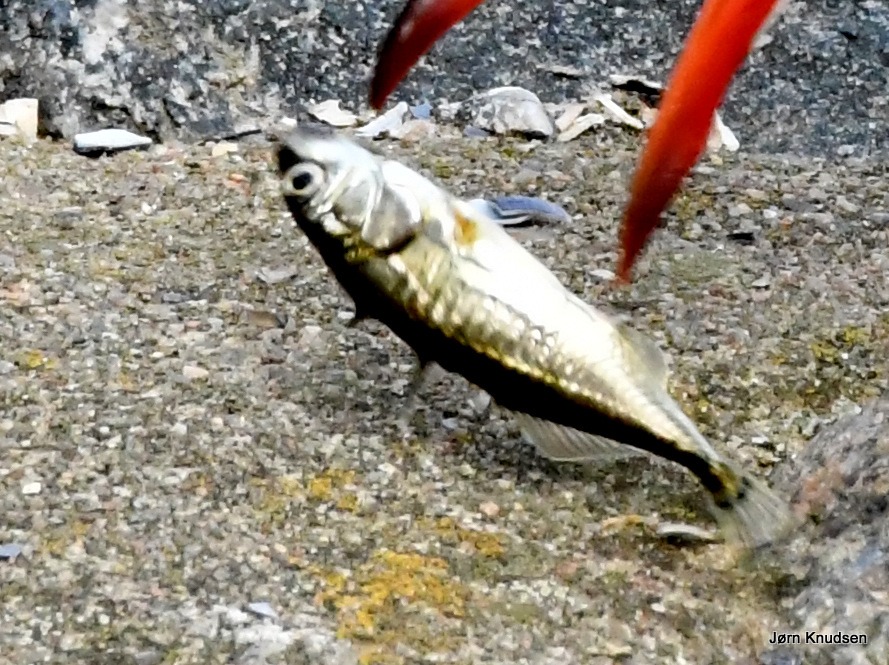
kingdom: Animalia
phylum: Chordata
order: Gasterosteiformes
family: Gasterosteidae
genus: Gasterosteus
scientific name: Gasterosteus aculeatus
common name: Trepigget hundestejle
